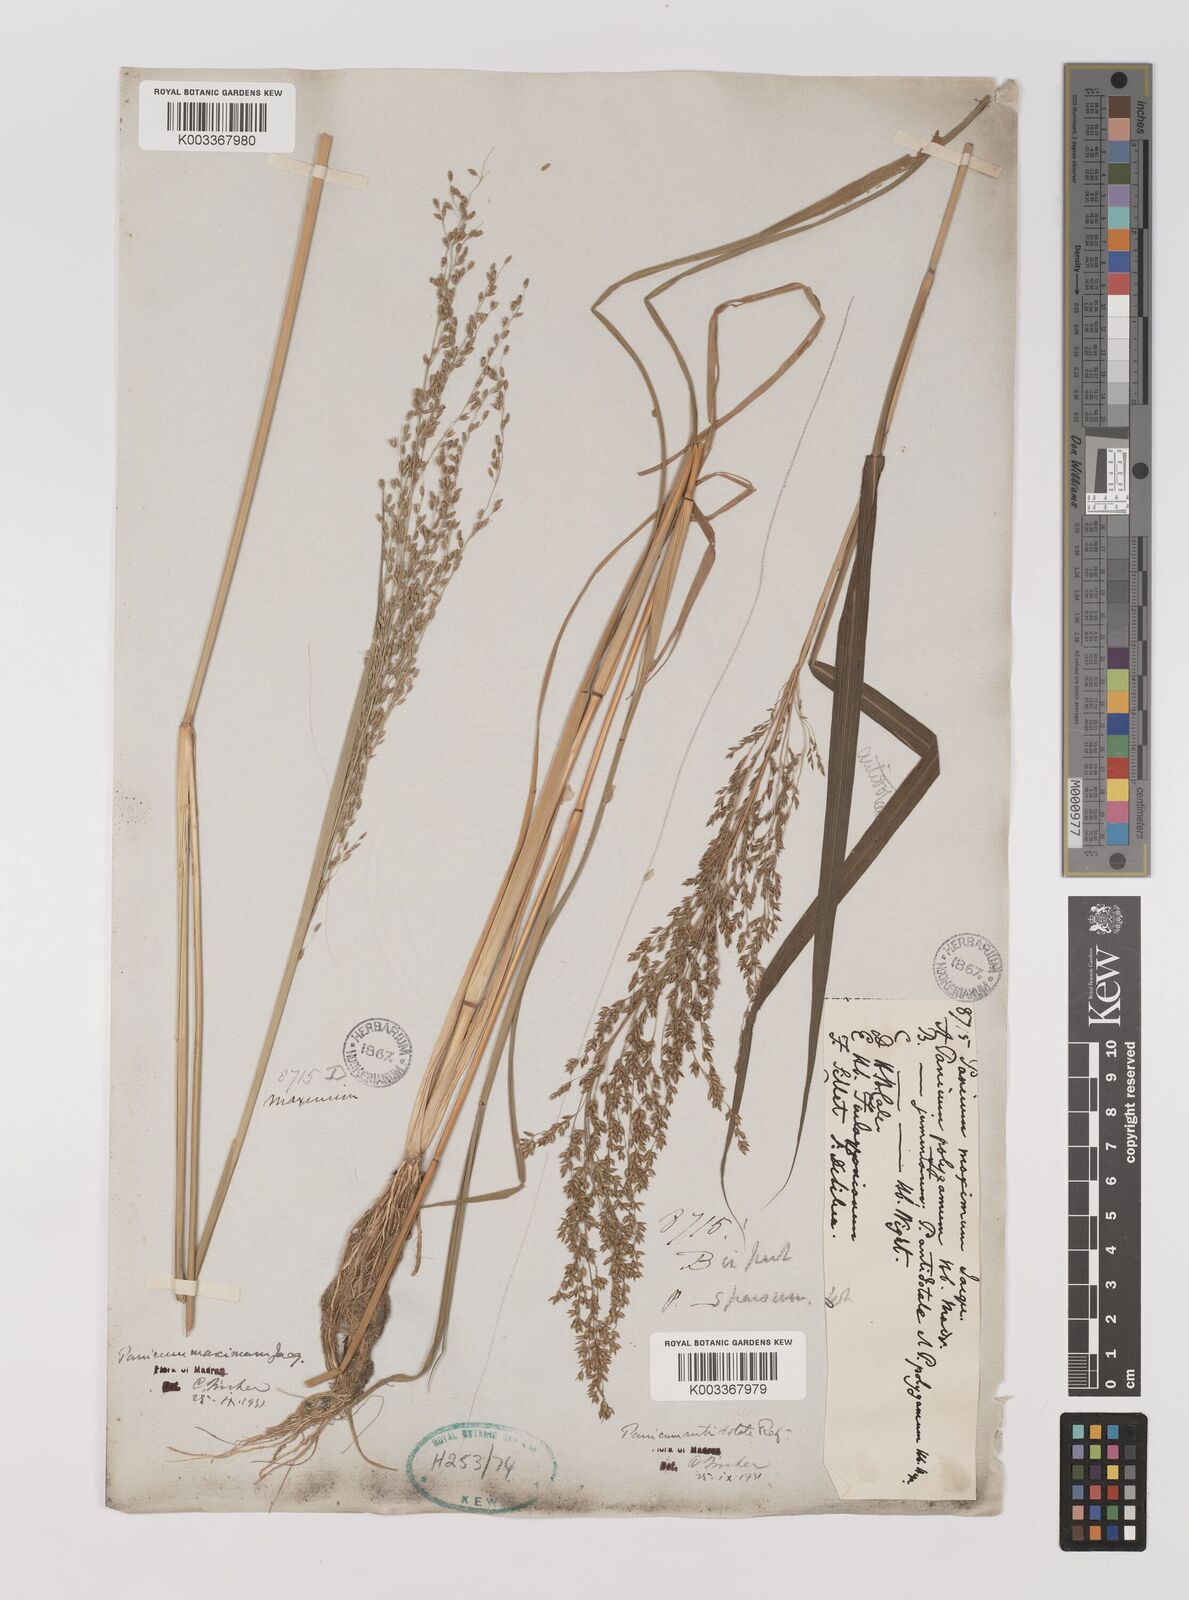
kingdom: Plantae
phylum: Tracheophyta
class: Liliopsida
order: Poales
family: Poaceae
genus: Megathyrsus
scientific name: Megathyrsus maximus
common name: Guineagrass
